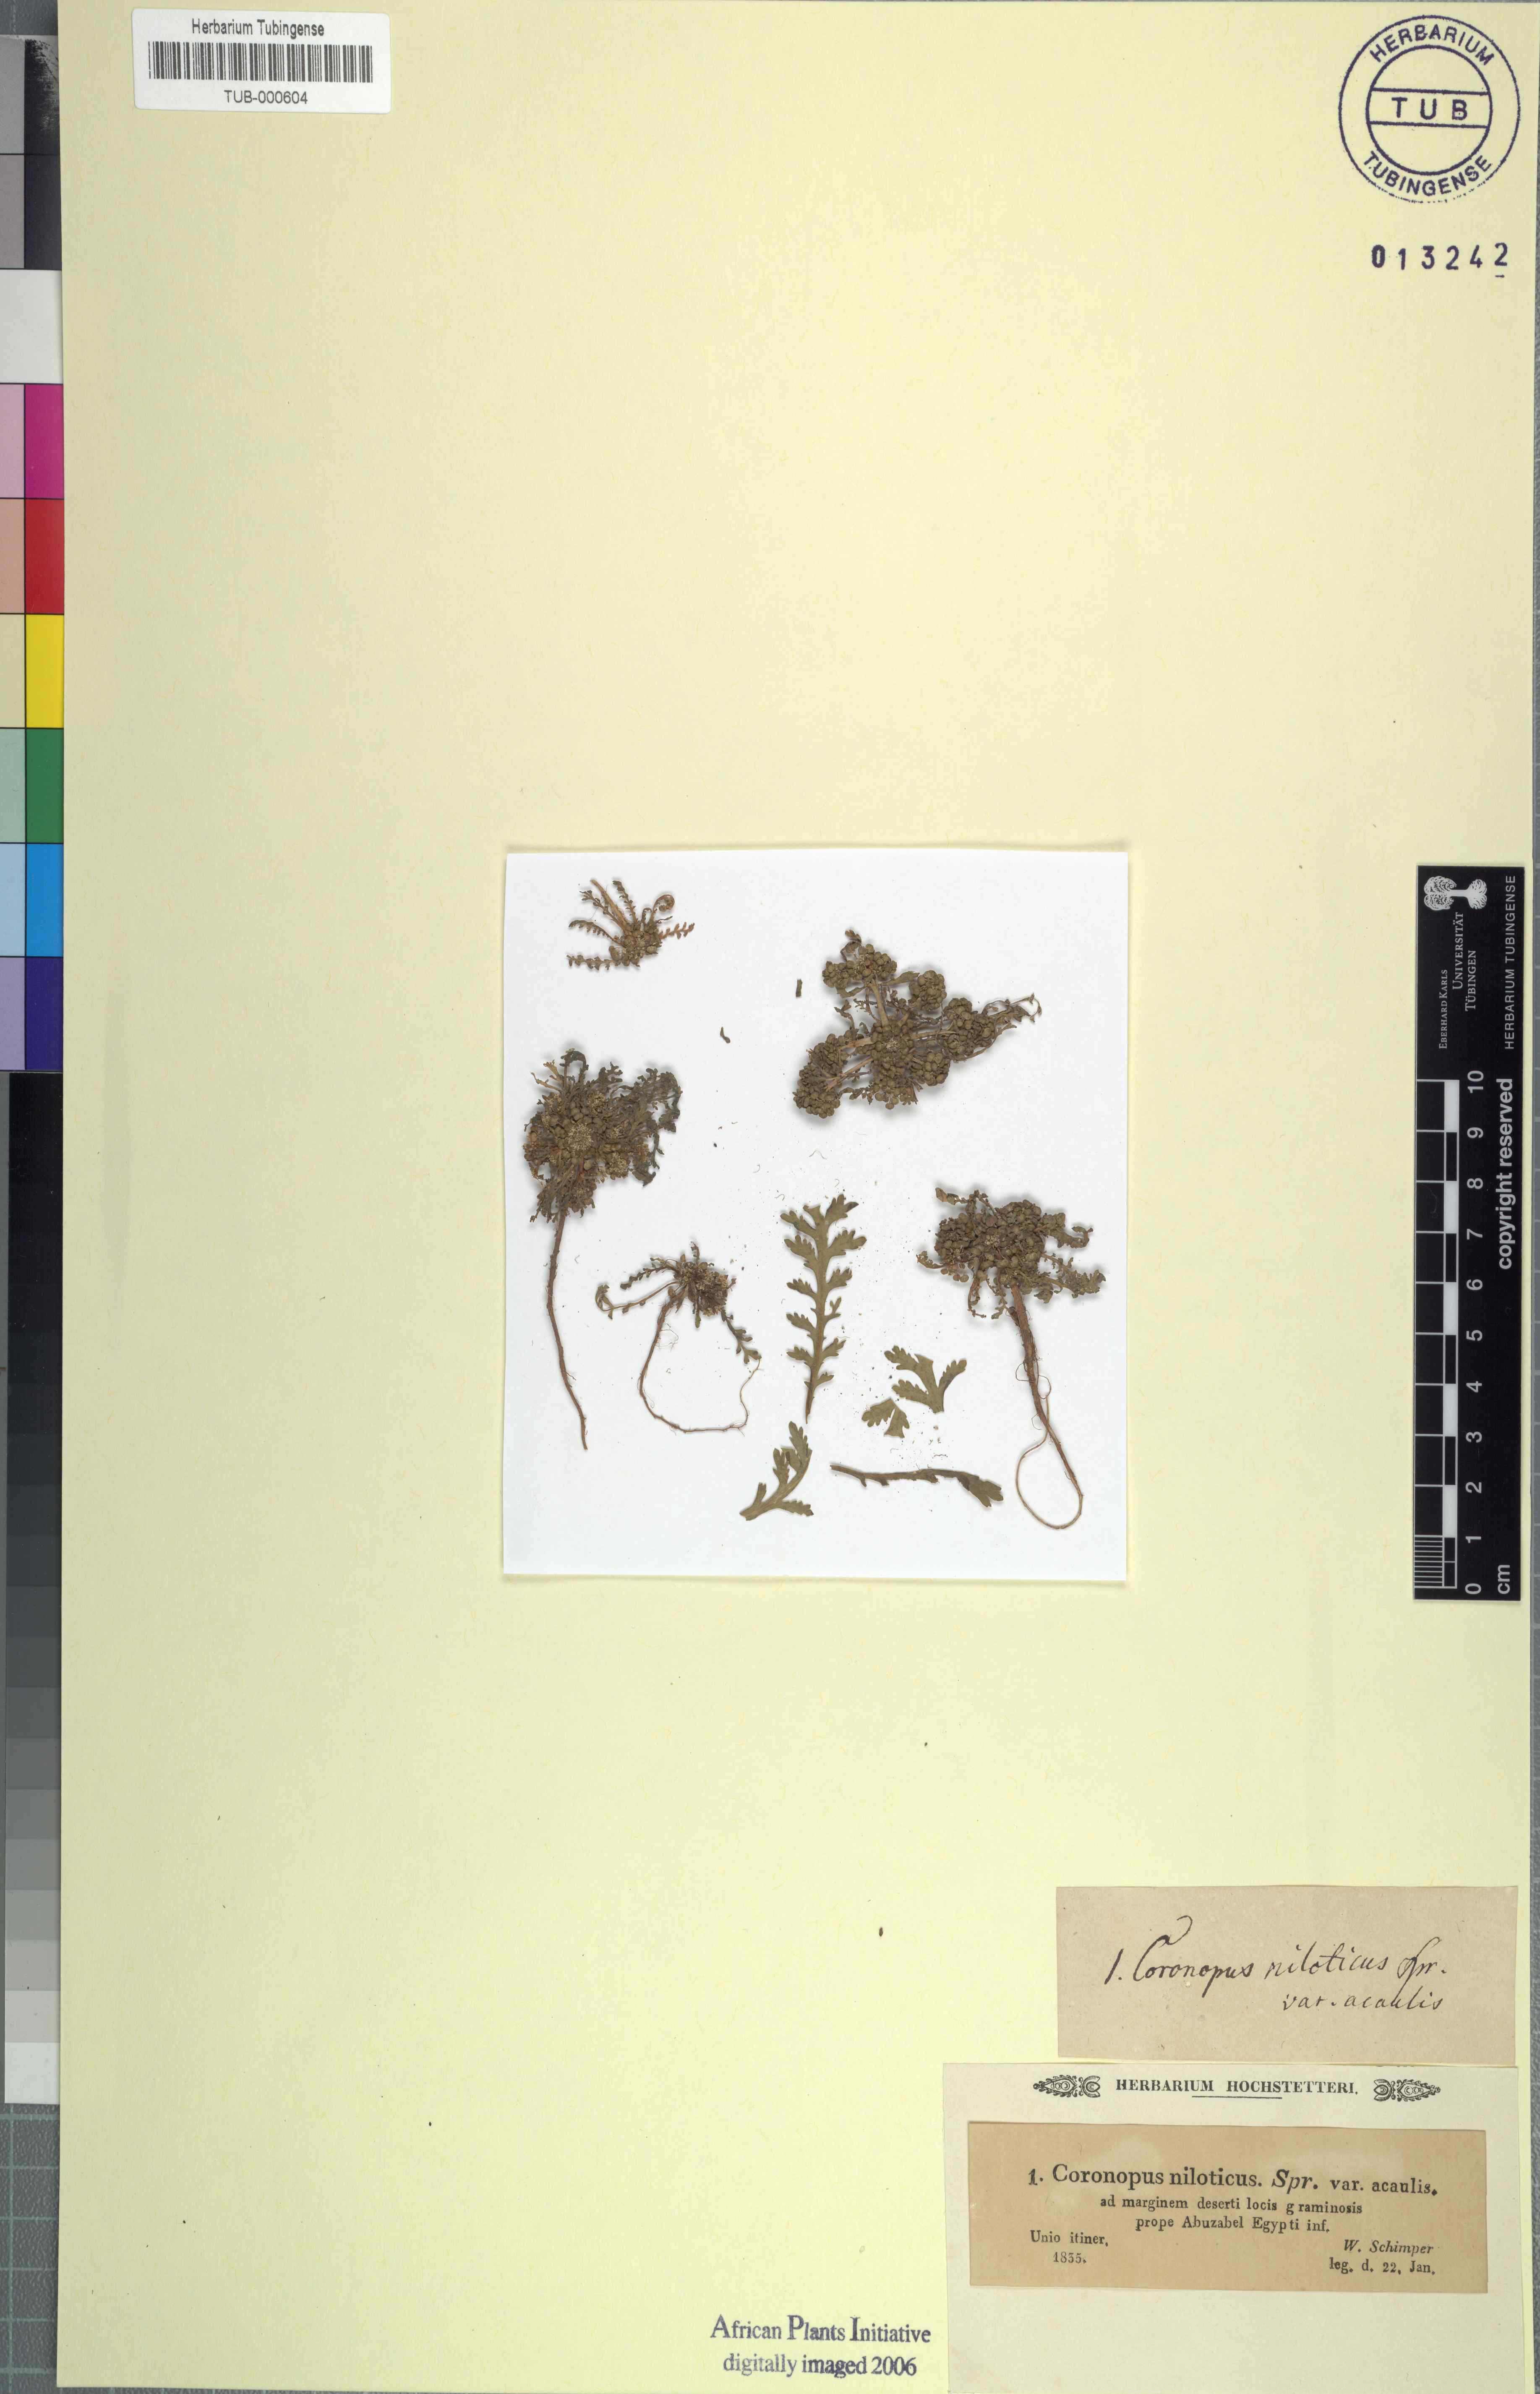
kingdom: Plantae
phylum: Tracheophyta
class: Magnoliopsida
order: Brassicales
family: Brassicaceae
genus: Lepidium
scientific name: Lepidium niloticum
